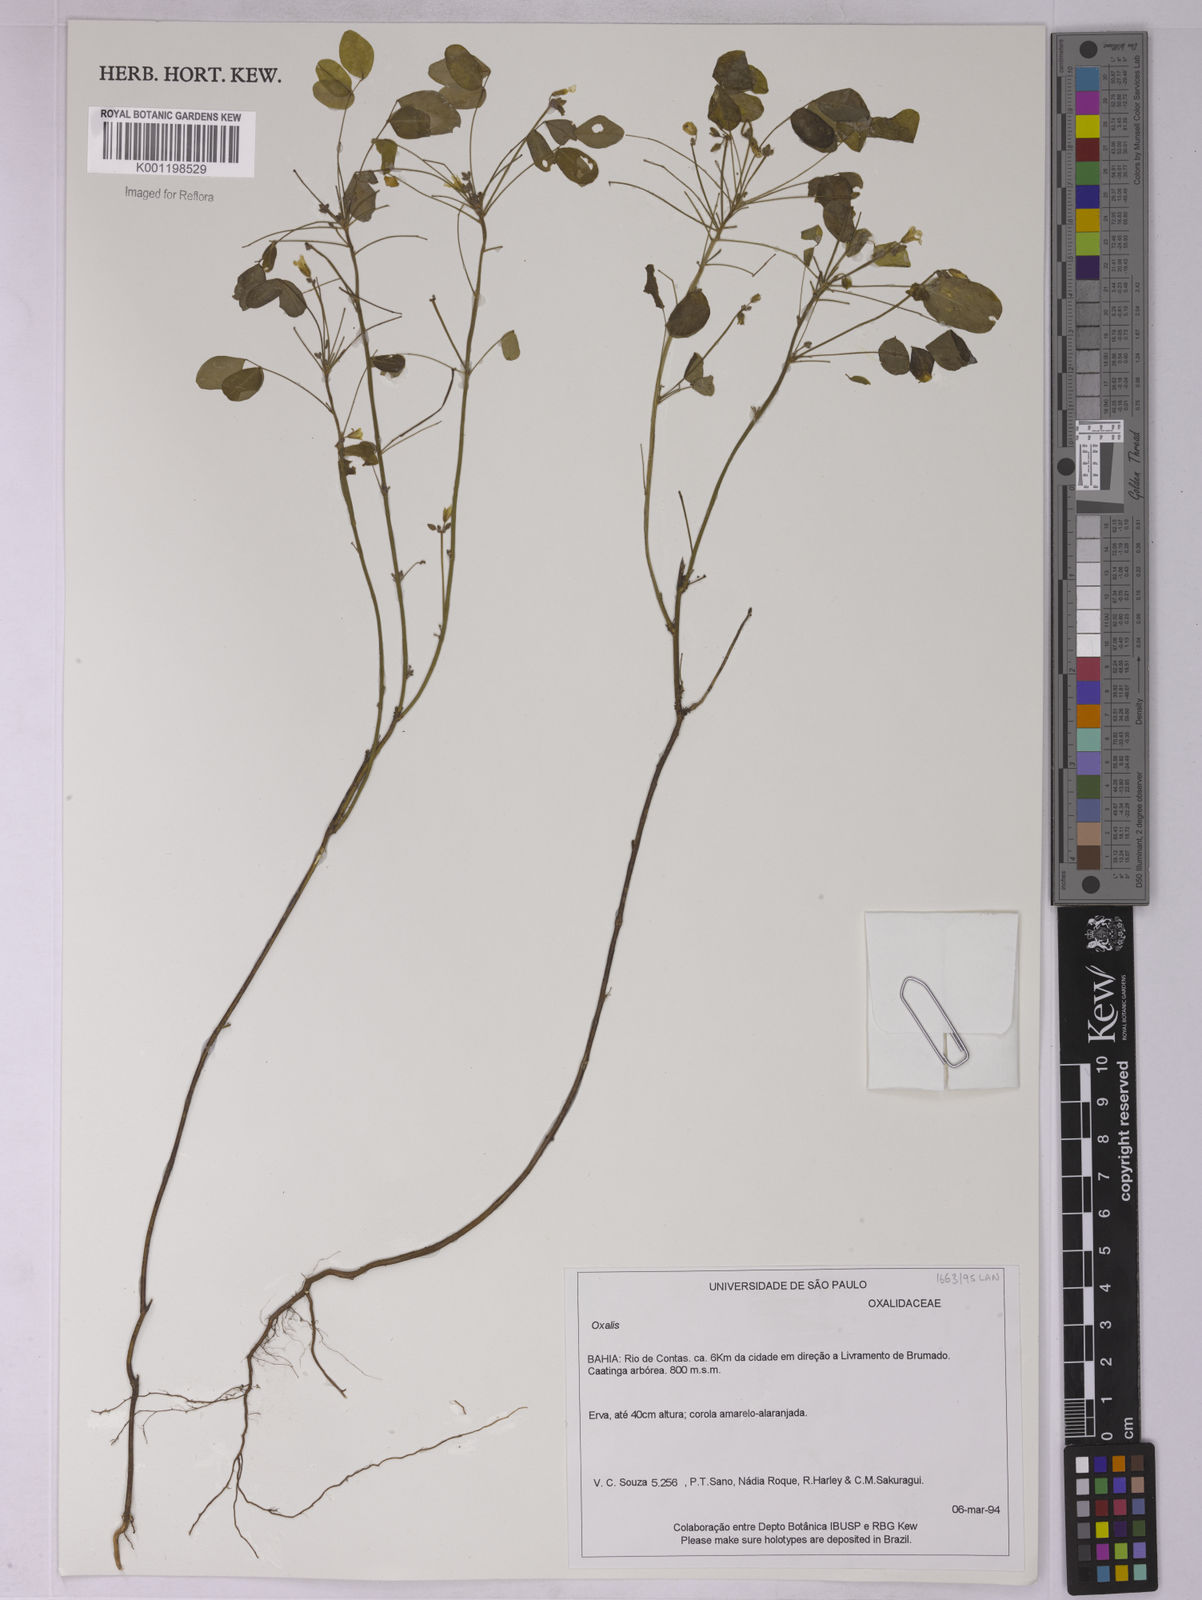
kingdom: Plantae
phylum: Tracheophyta
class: Magnoliopsida
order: Oxalidales
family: Oxalidaceae
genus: Oxalis
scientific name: Oxalis
